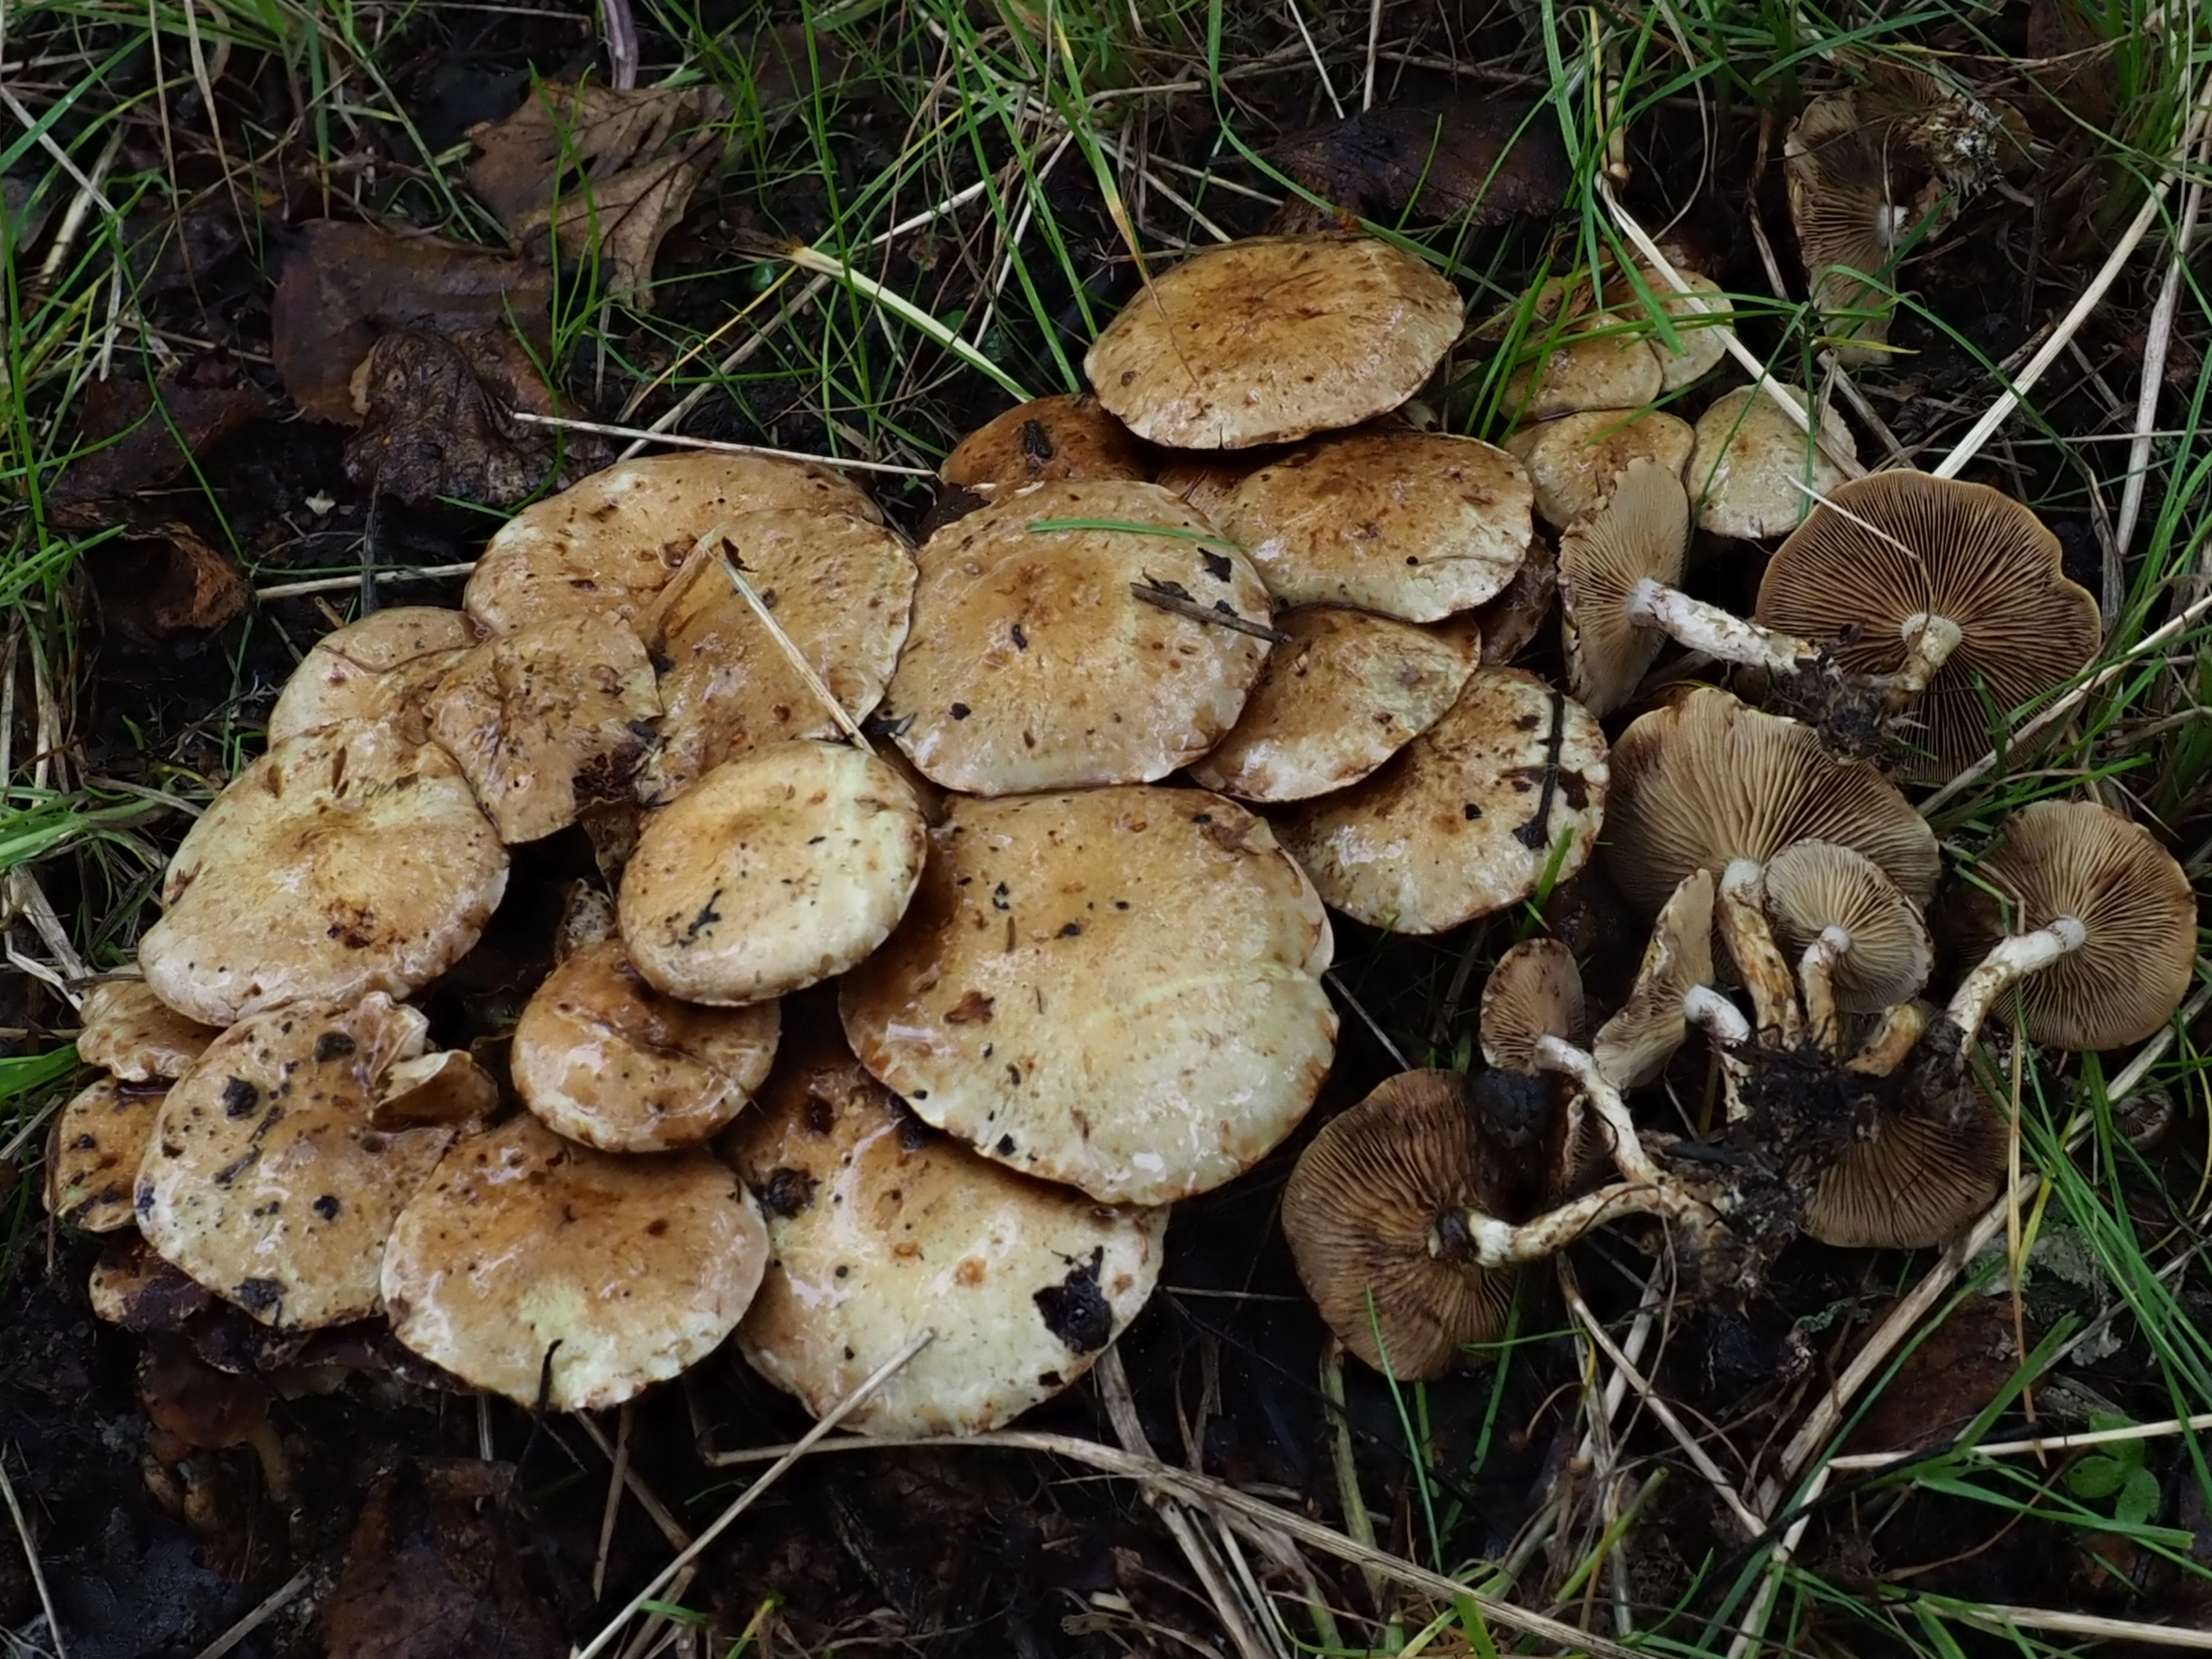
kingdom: Fungi
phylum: Basidiomycota
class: Agaricomycetes
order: Agaricales
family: Strophariaceae
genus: Pholiota
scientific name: Pholiota gummosa
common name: Sticky scalycap
